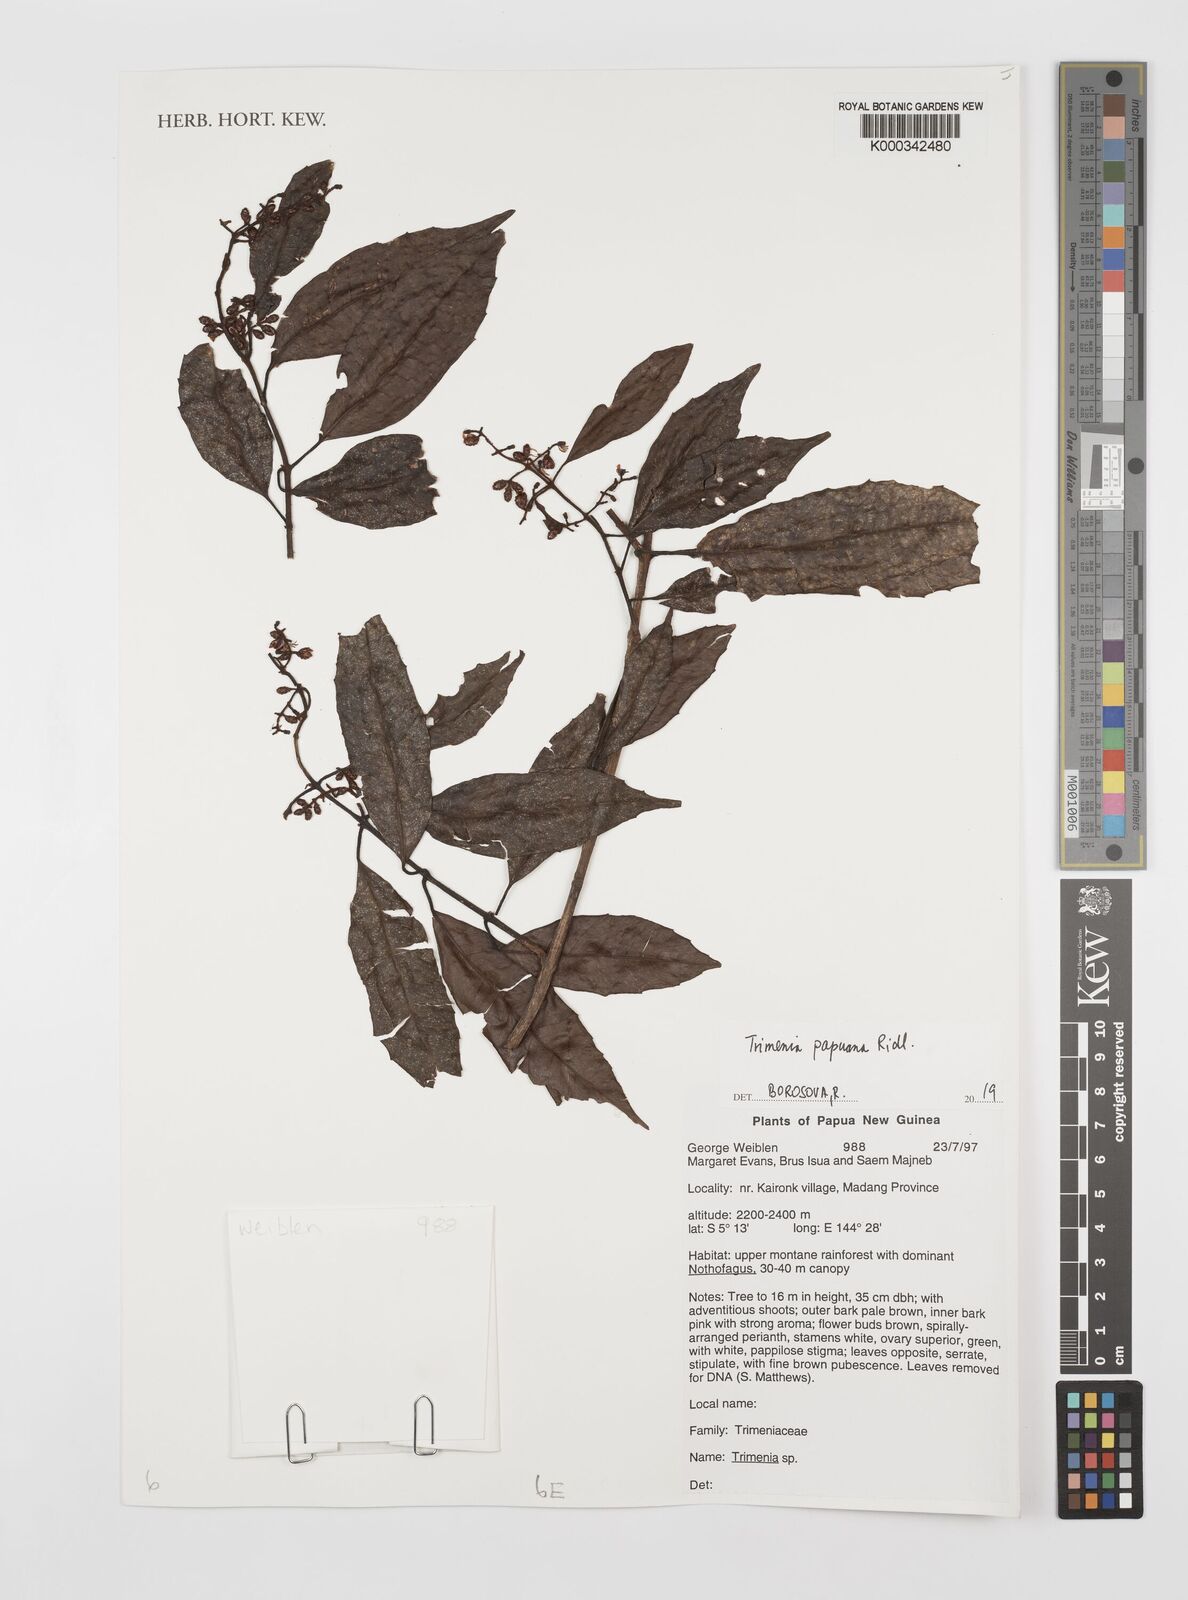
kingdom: Plantae
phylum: Tracheophyta
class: Magnoliopsida
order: Austrobaileyales
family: Trimeniaceae
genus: Trimenia
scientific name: Trimenia papuana
